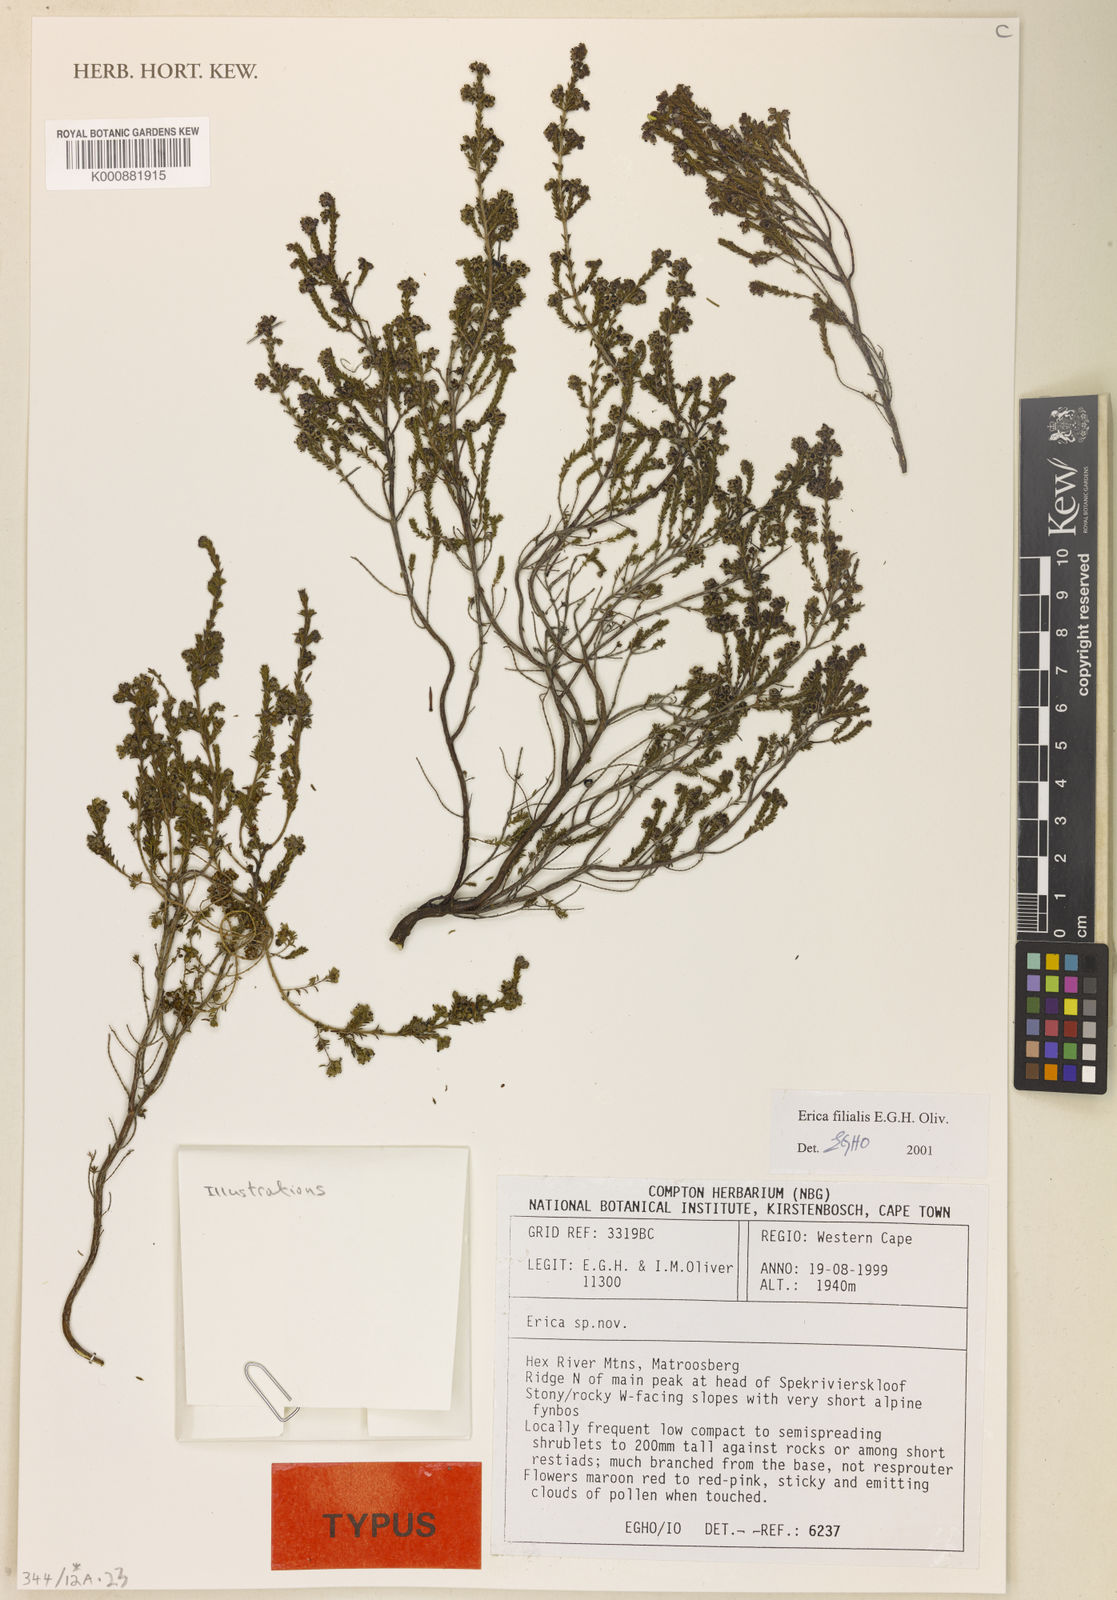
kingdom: Plantae
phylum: Tracheophyta
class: Magnoliopsida
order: Ericales
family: Ericaceae
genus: Erica
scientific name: Erica filialis
